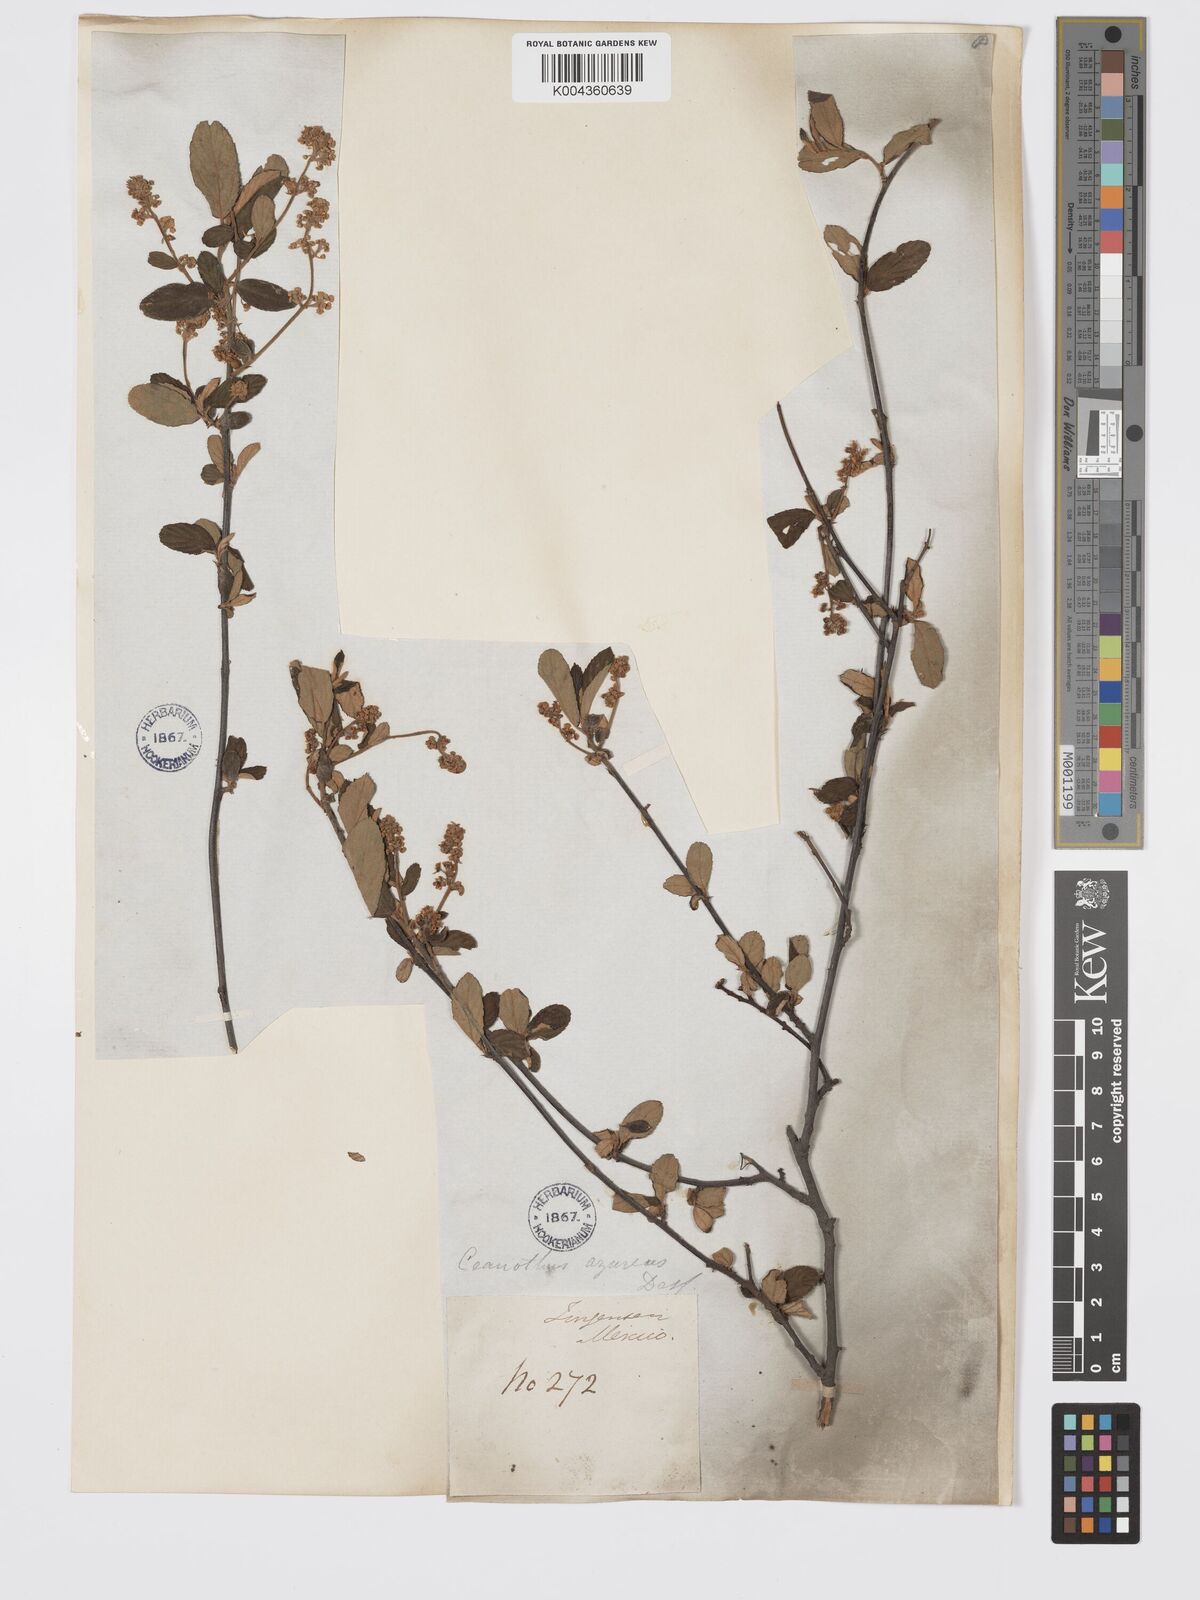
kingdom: Plantae
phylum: Tracheophyta
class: Magnoliopsida
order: Rosales
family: Rhamnaceae
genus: Ceanothus
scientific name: Ceanothus caeruleus
